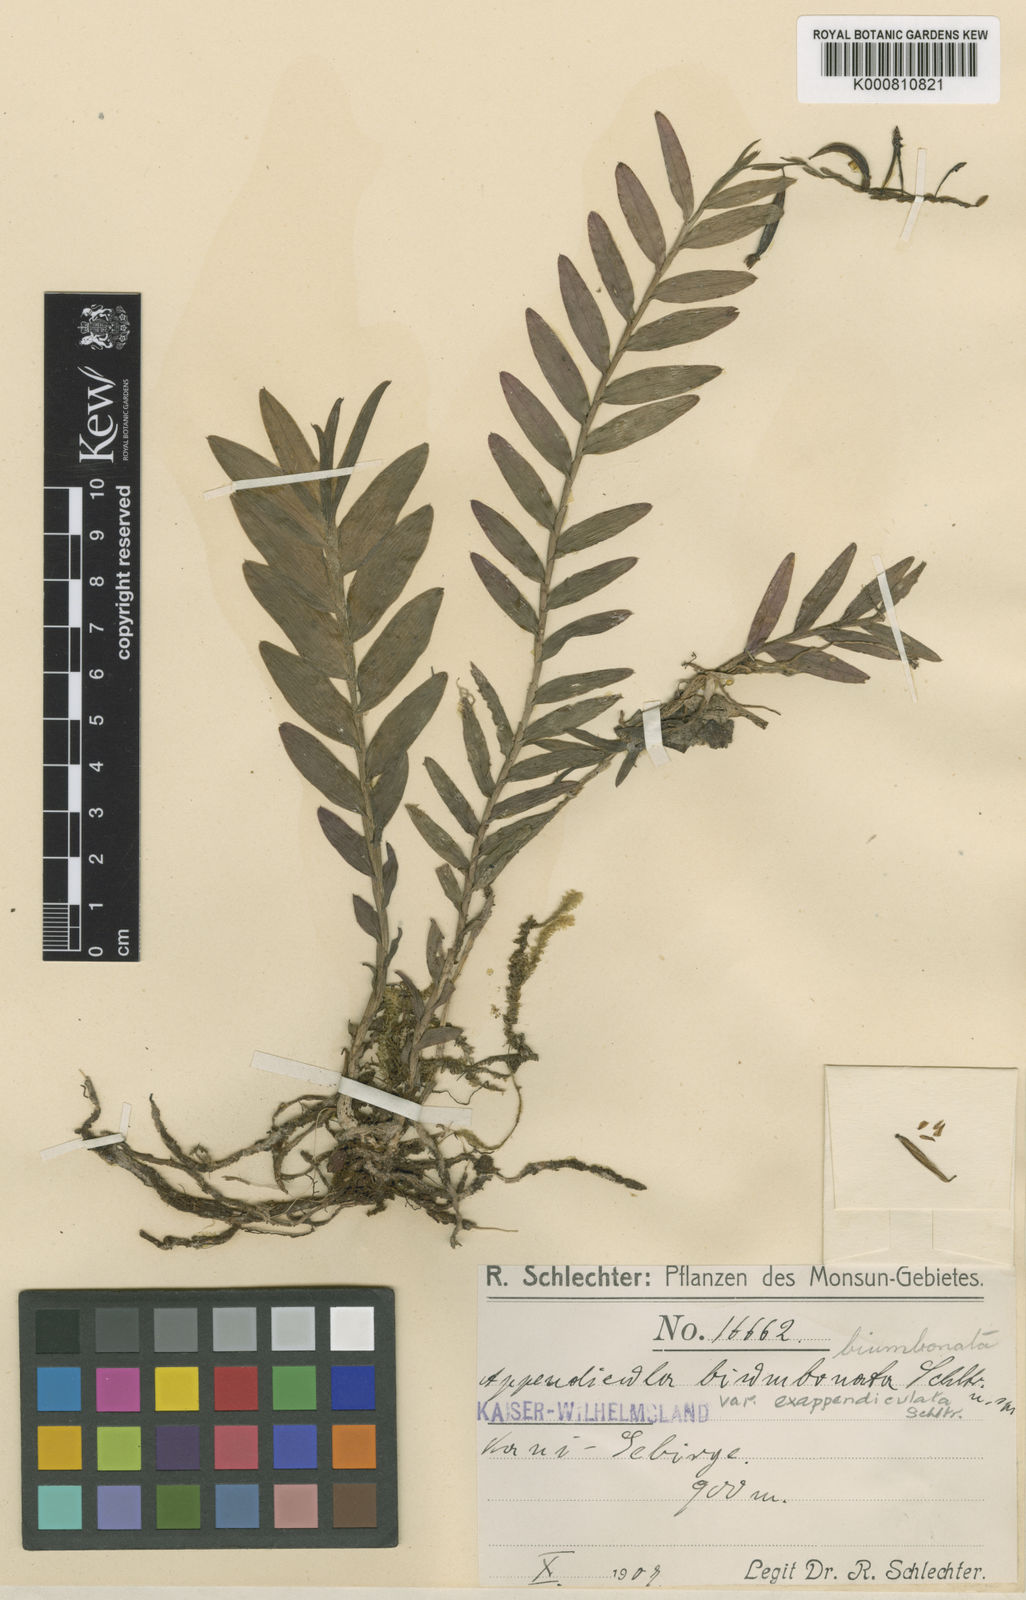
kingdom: Plantae
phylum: Tracheophyta
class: Liliopsida
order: Asparagales
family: Orchidaceae
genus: Appendicula
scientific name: Appendicula biumbonata
